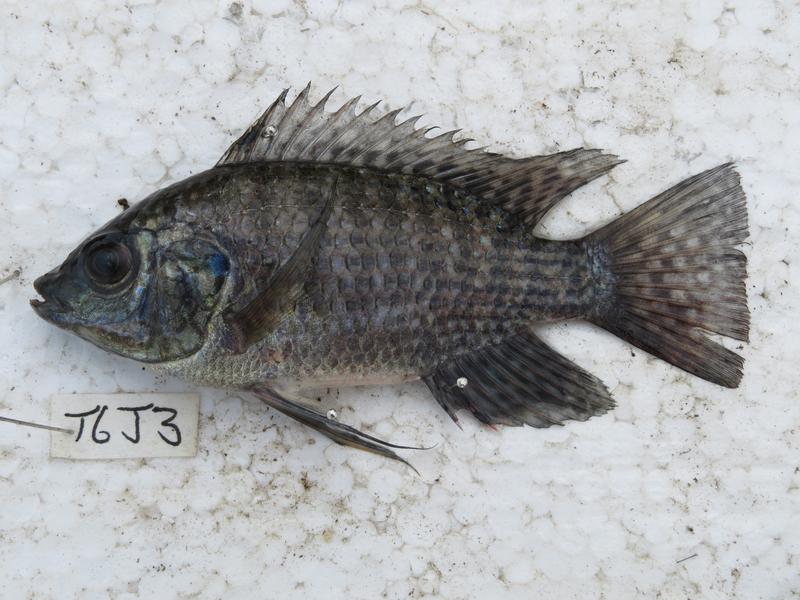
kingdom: Animalia
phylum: Chordata
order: Perciformes
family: Cichlidae
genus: Oreochromis
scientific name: Oreochromis leucostictus
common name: Blue spotted tilapia
